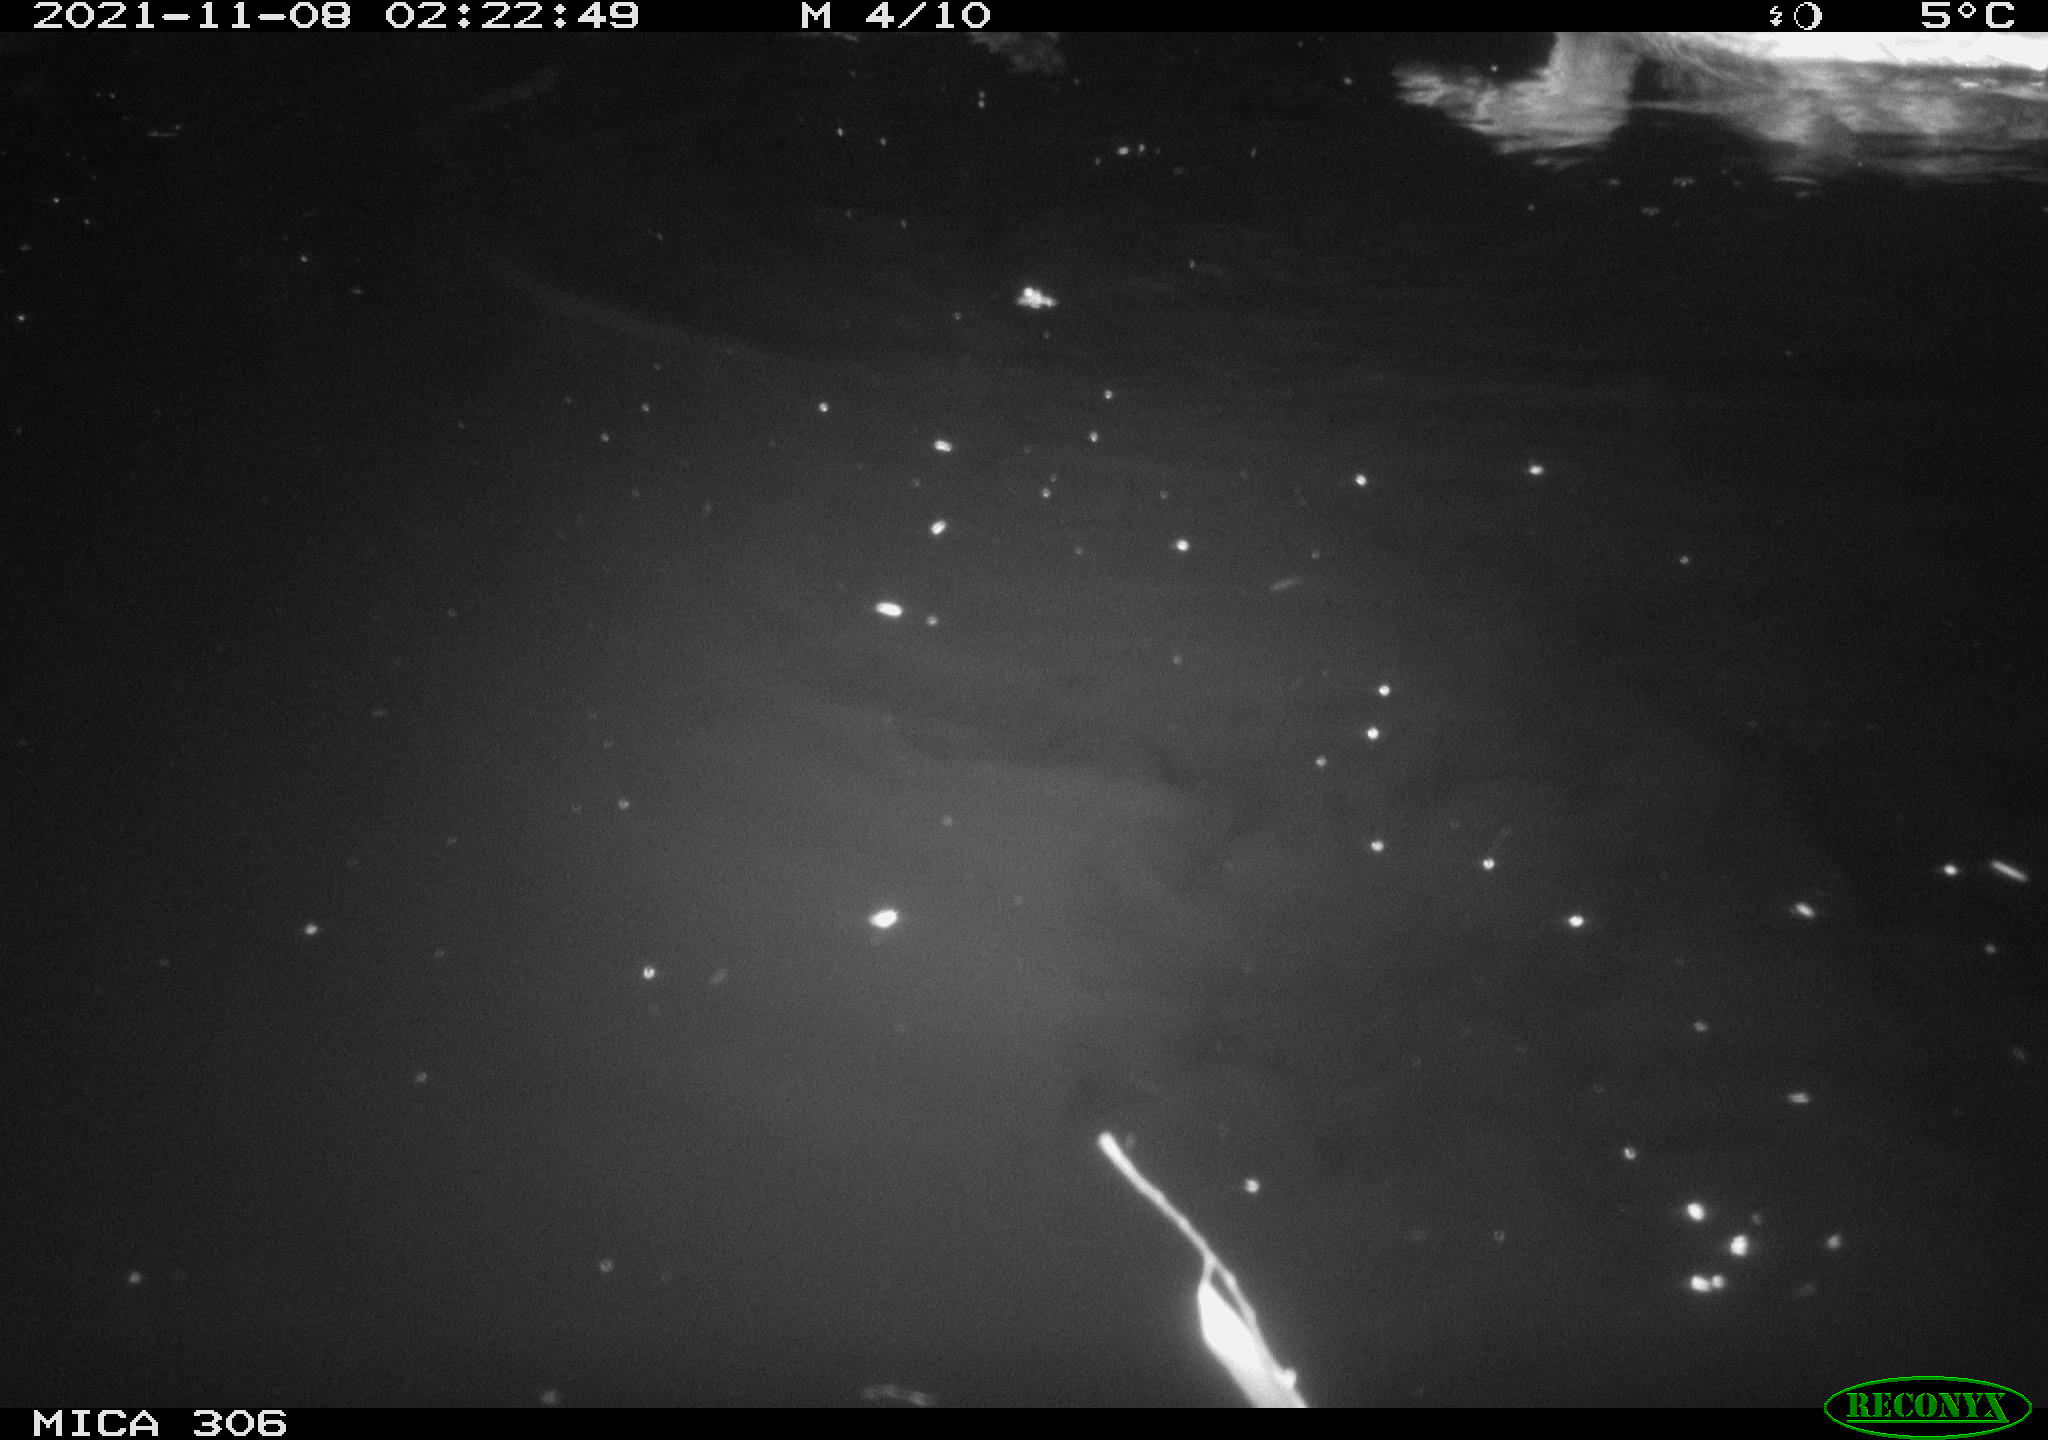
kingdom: Animalia
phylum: Chordata
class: Aves
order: Anseriformes
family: Anatidae
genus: Anas
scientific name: Anas platyrhynchos
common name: Mallard
